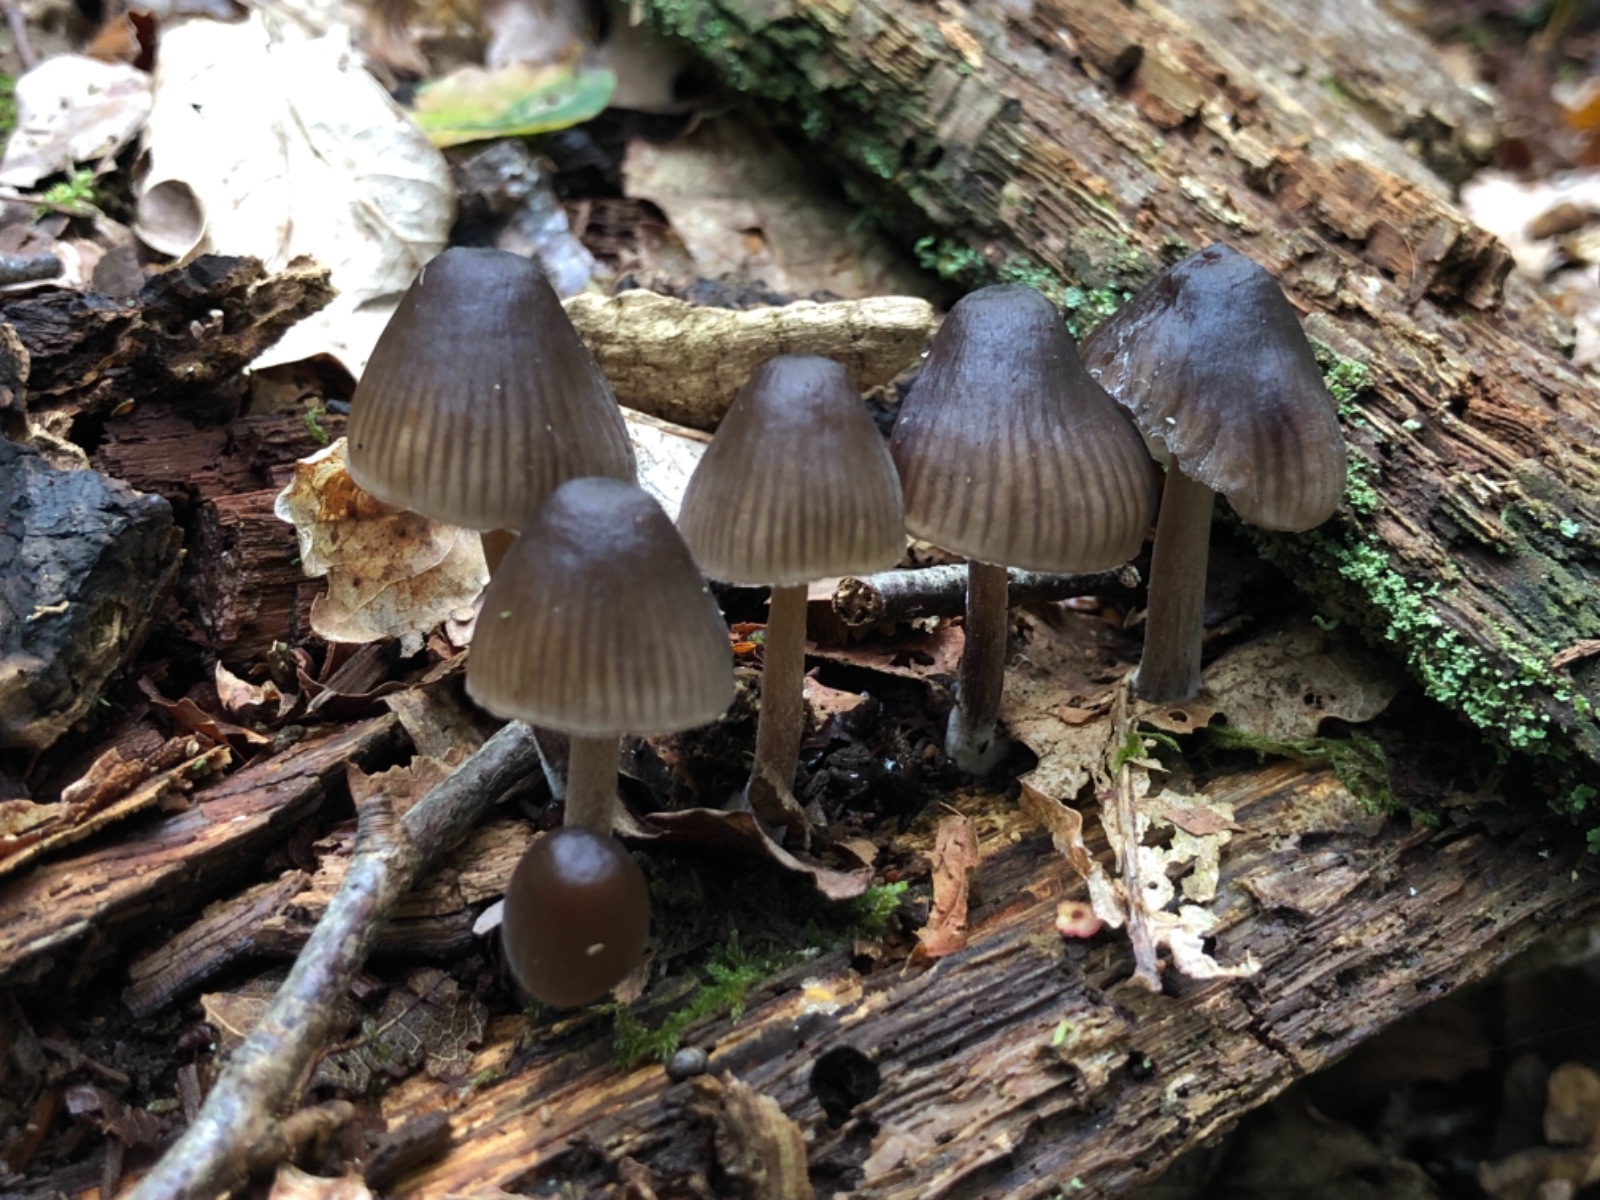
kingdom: Fungi
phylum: Basidiomycota
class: Agaricomycetes
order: Agaricales
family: Mycenaceae
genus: Mycena
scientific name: Mycena inclinata
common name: nikkende huesvamp
